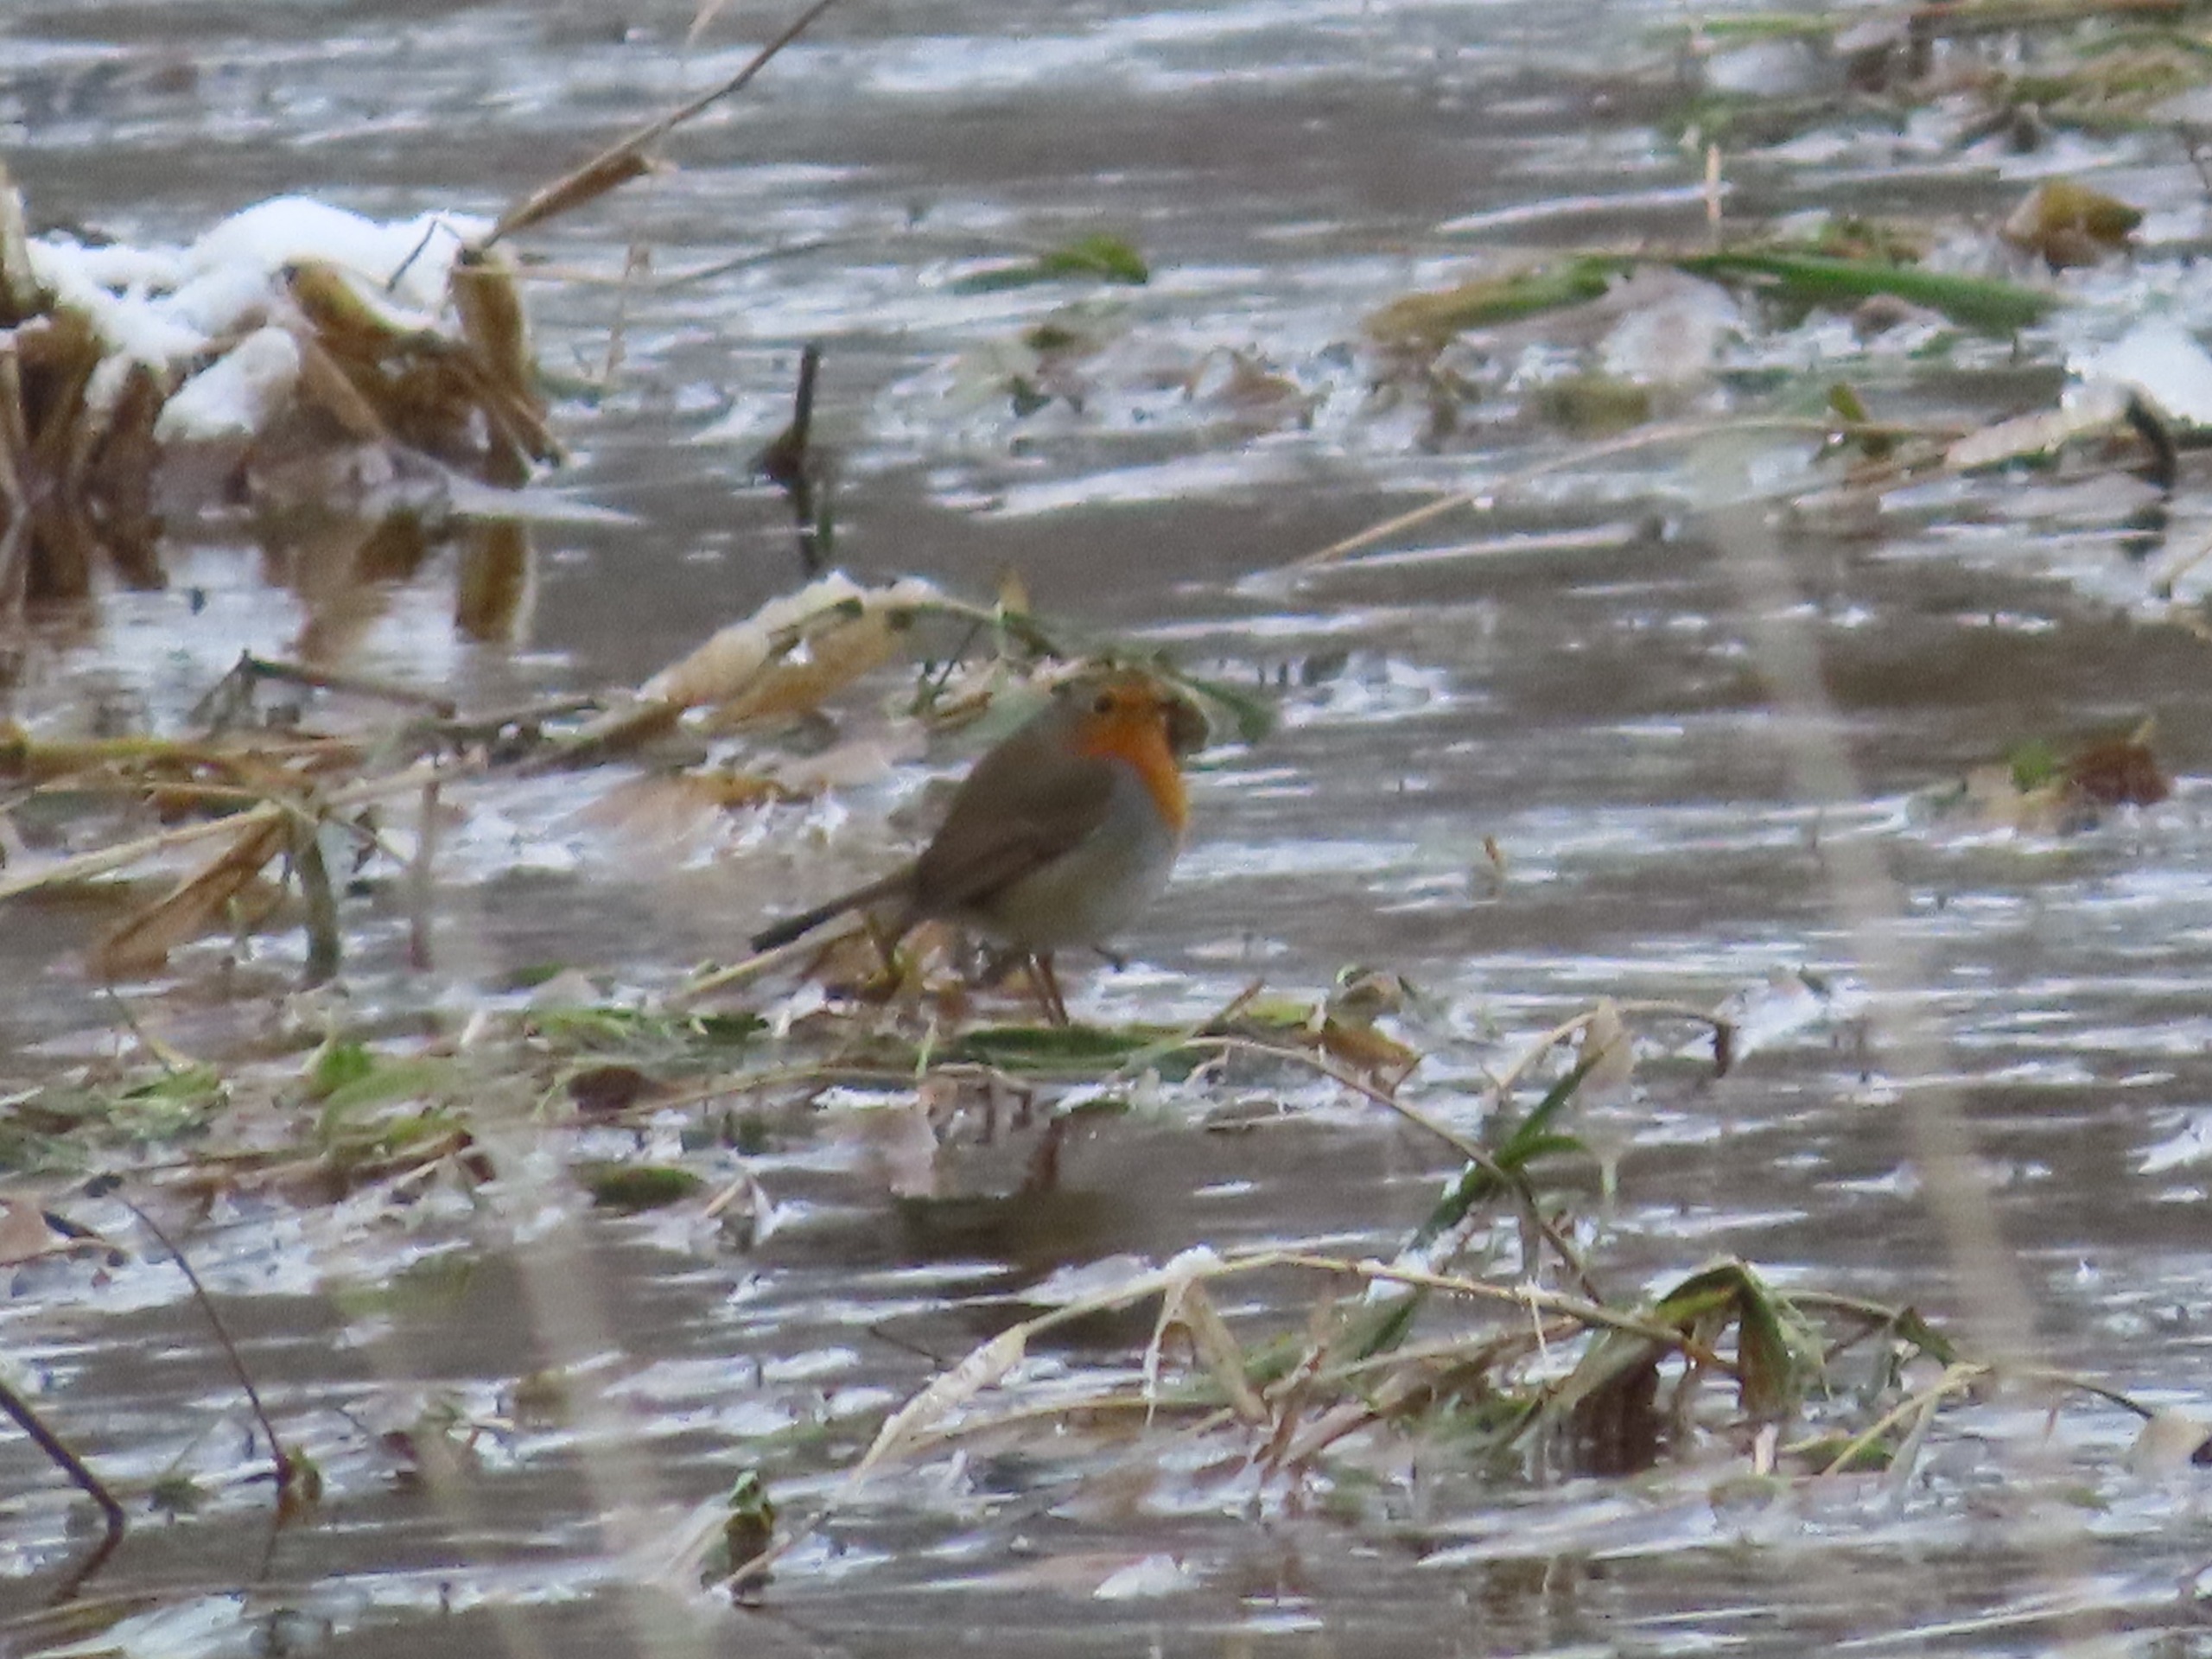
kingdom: Animalia
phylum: Chordata
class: Aves
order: Passeriformes
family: Muscicapidae
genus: Erithacus
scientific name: Erithacus rubecula
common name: Rødhals/rødkælk
